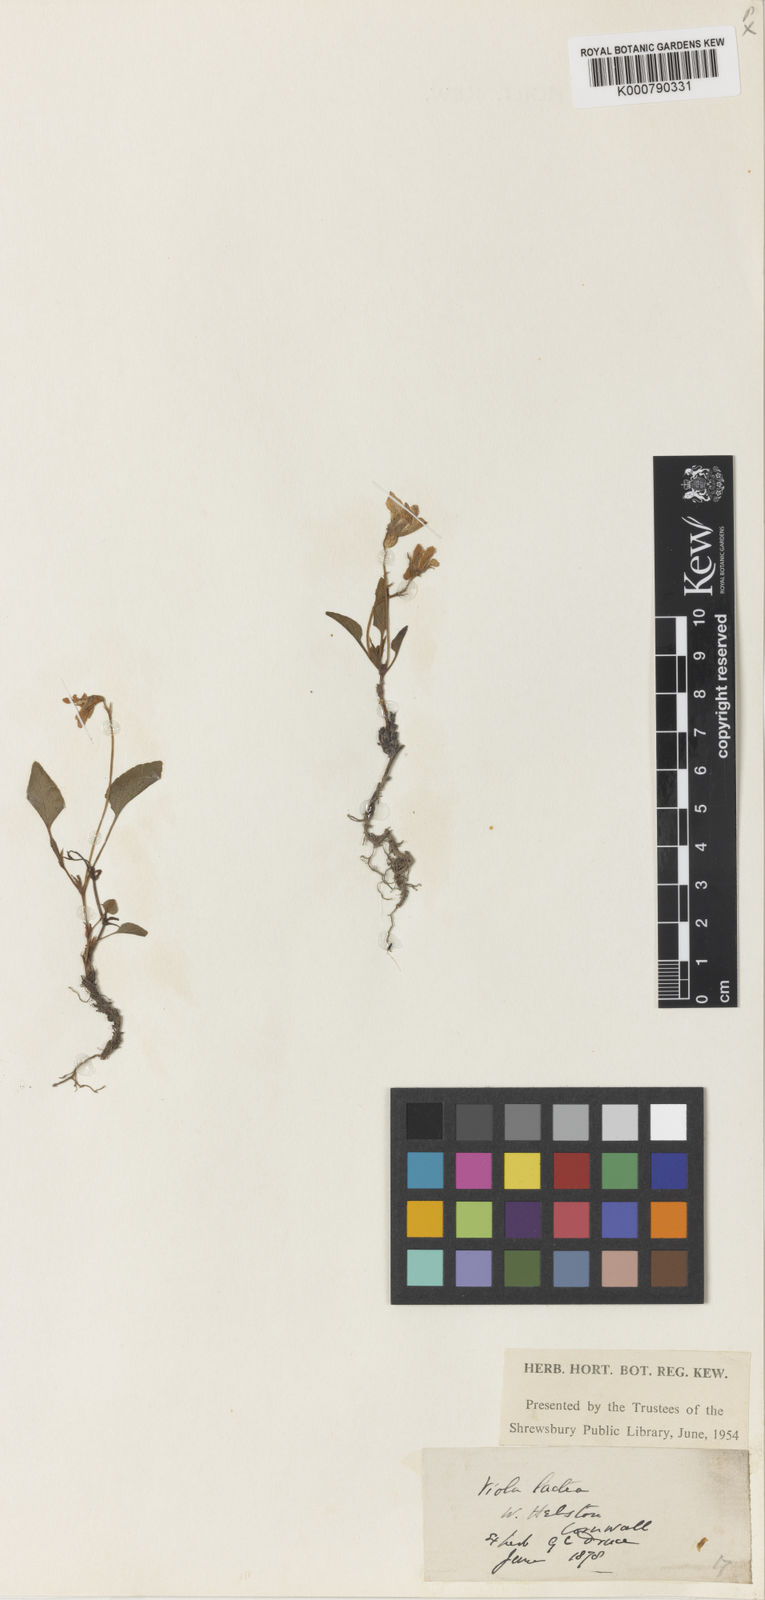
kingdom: Plantae
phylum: Tracheophyta
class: Magnoliopsida
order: Malpighiales
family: Violaceae
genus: Viola
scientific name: Viola lactea
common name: Pale dog-violet
